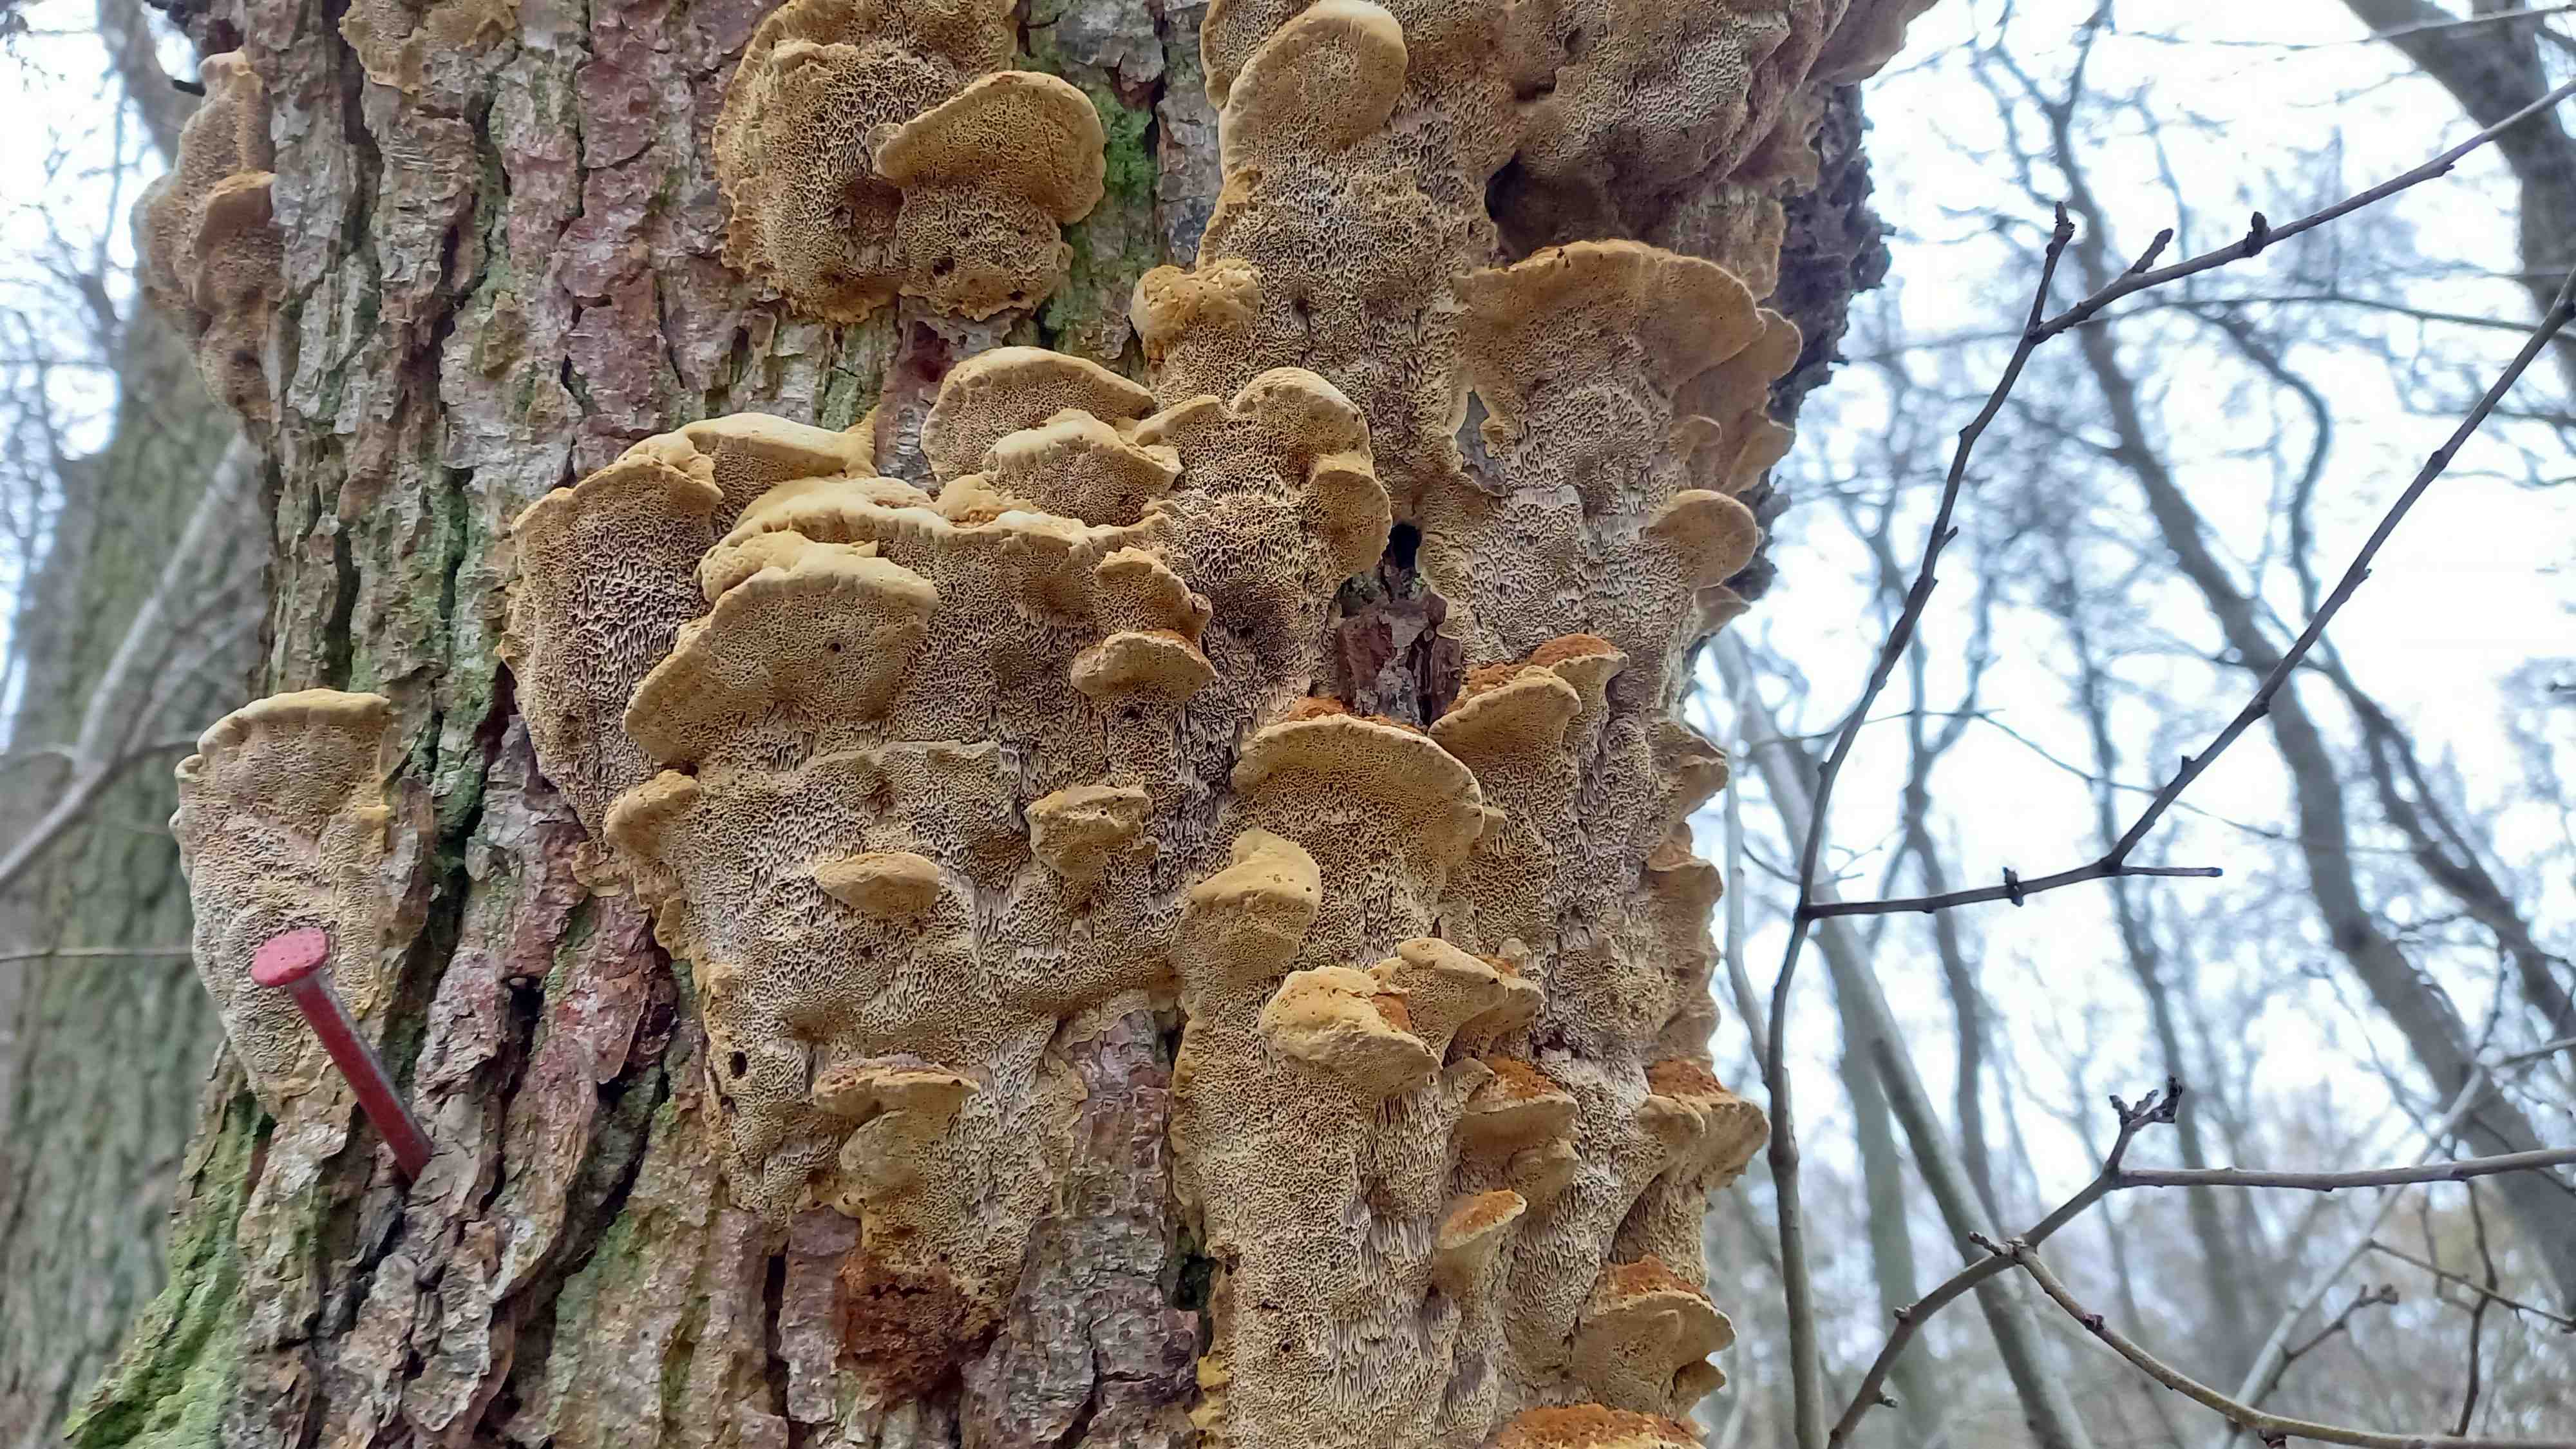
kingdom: Fungi
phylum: Basidiomycota
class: Agaricomycetes
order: Hymenochaetales
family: Hymenochaetaceae
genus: Xanthoporia
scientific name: Xanthoporia radiata
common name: elle-spejlporesvamp
